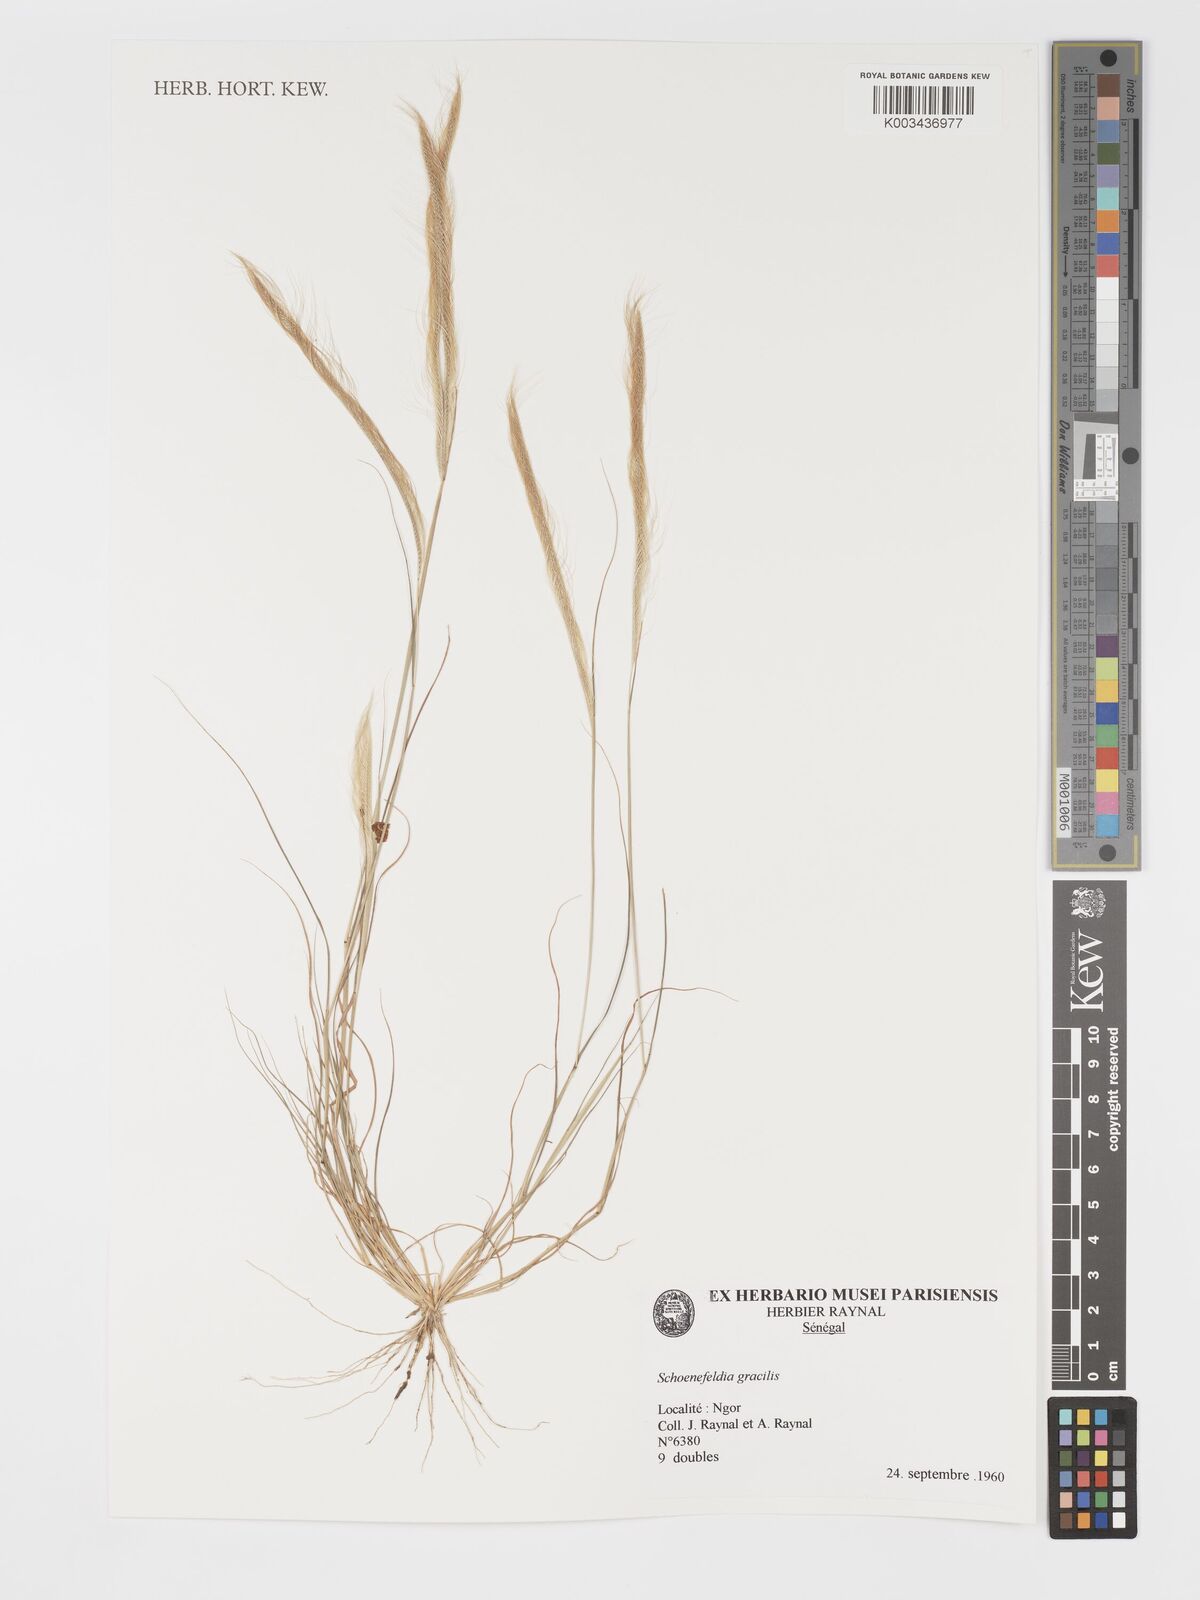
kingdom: Plantae
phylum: Tracheophyta
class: Liliopsida
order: Poales
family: Poaceae
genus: Schoenefeldia
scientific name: Schoenefeldia gracilis
